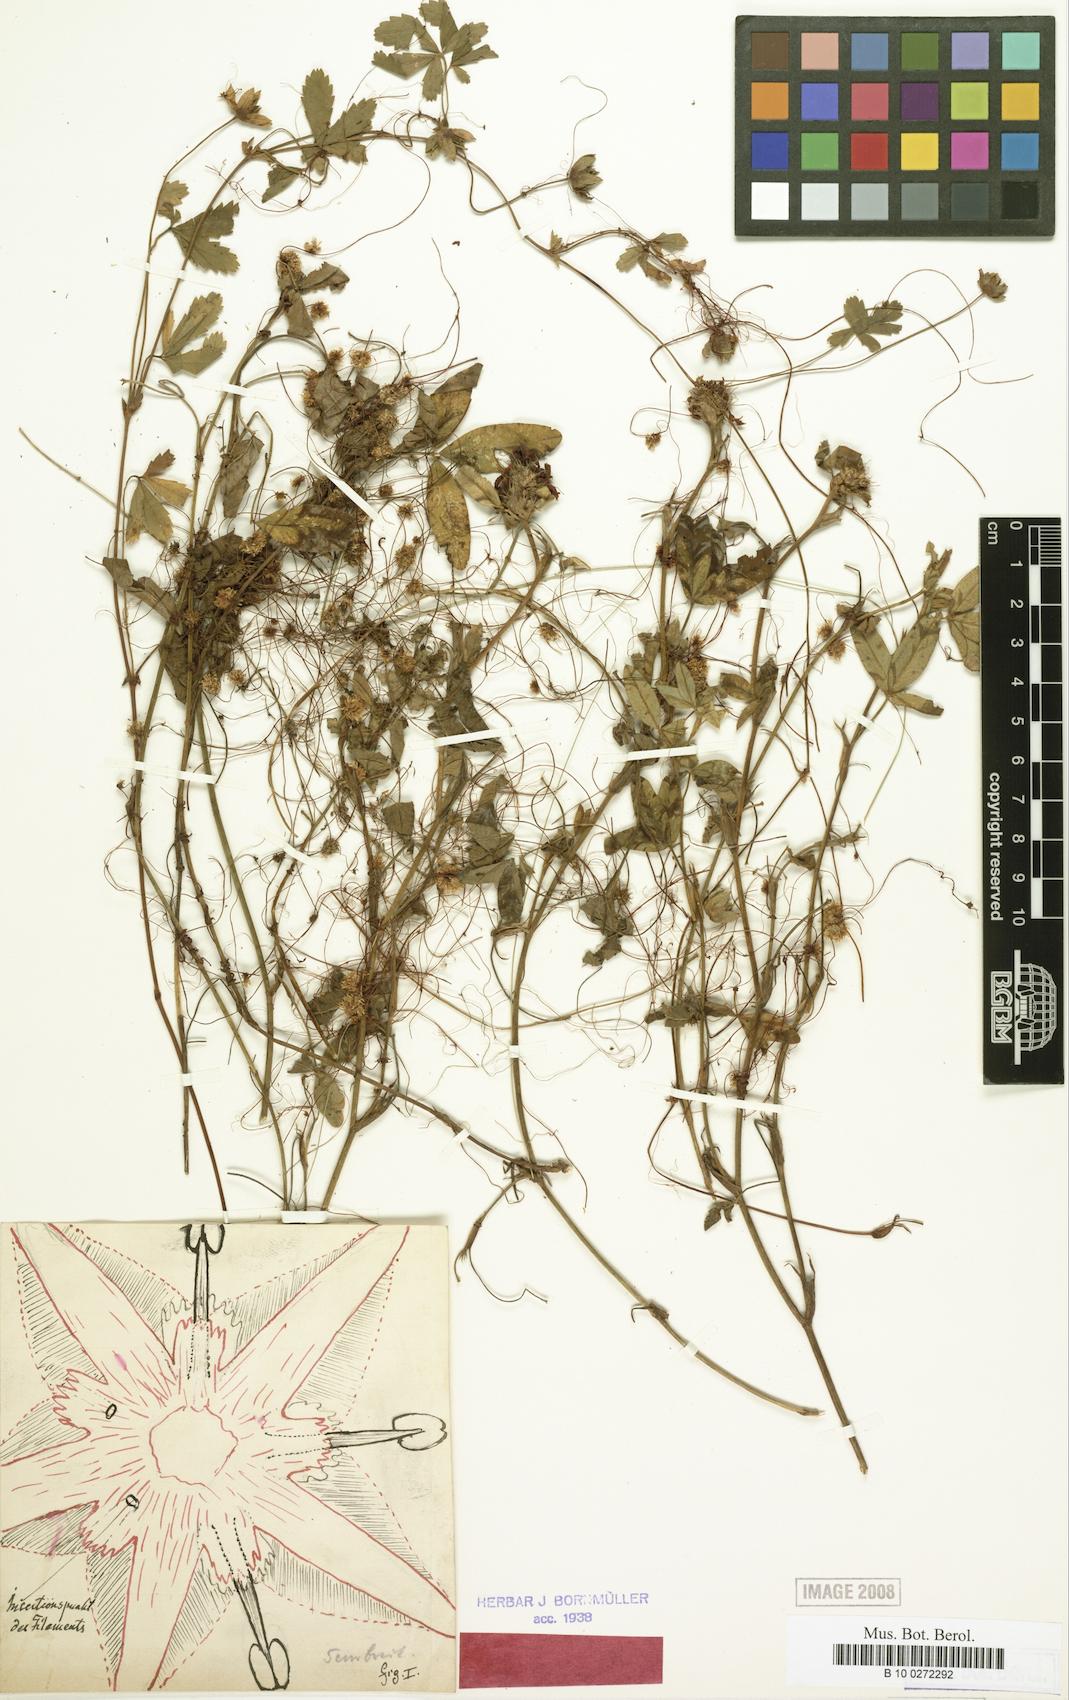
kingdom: Plantae
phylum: Tracheophyta
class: Magnoliopsida
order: Solanales
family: Convolvulaceae
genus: Cuscuta
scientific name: Cuscuta epithymum
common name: Clover dodder
